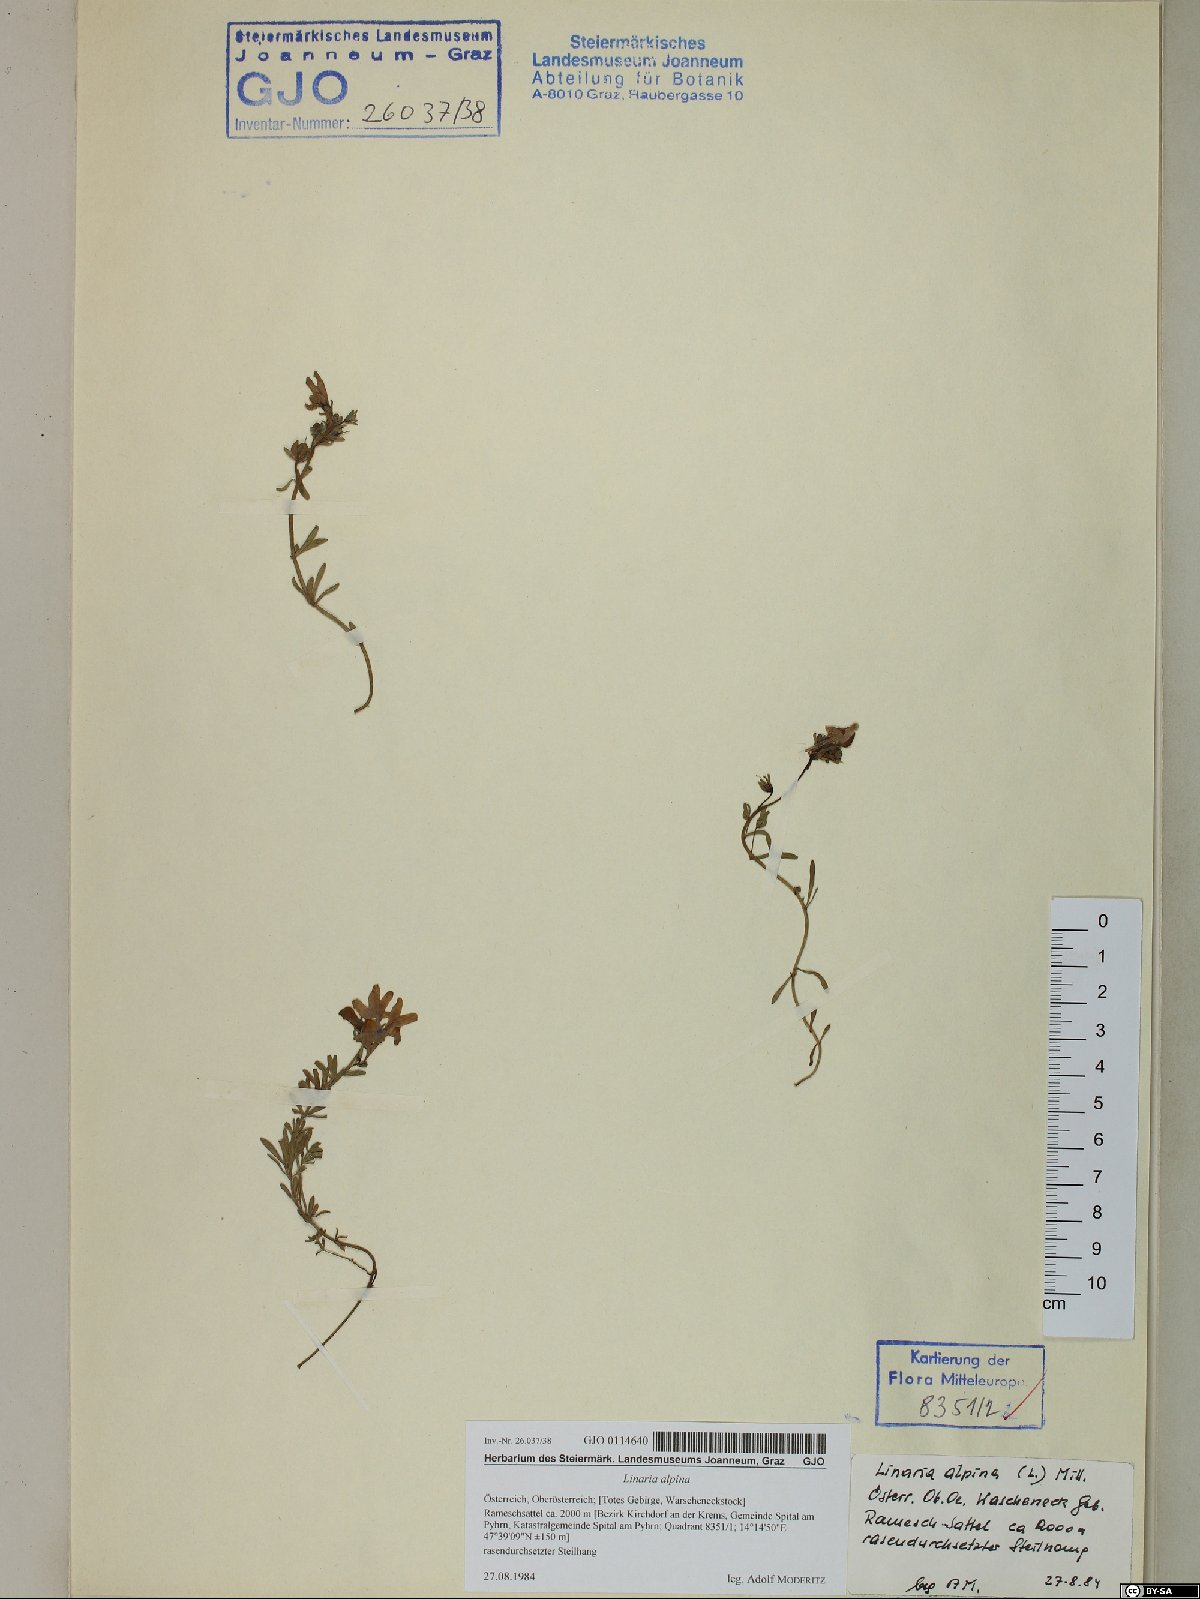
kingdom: Plantae
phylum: Tracheophyta
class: Magnoliopsida
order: Lamiales
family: Plantaginaceae
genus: Linaria
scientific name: Linaria alpina
